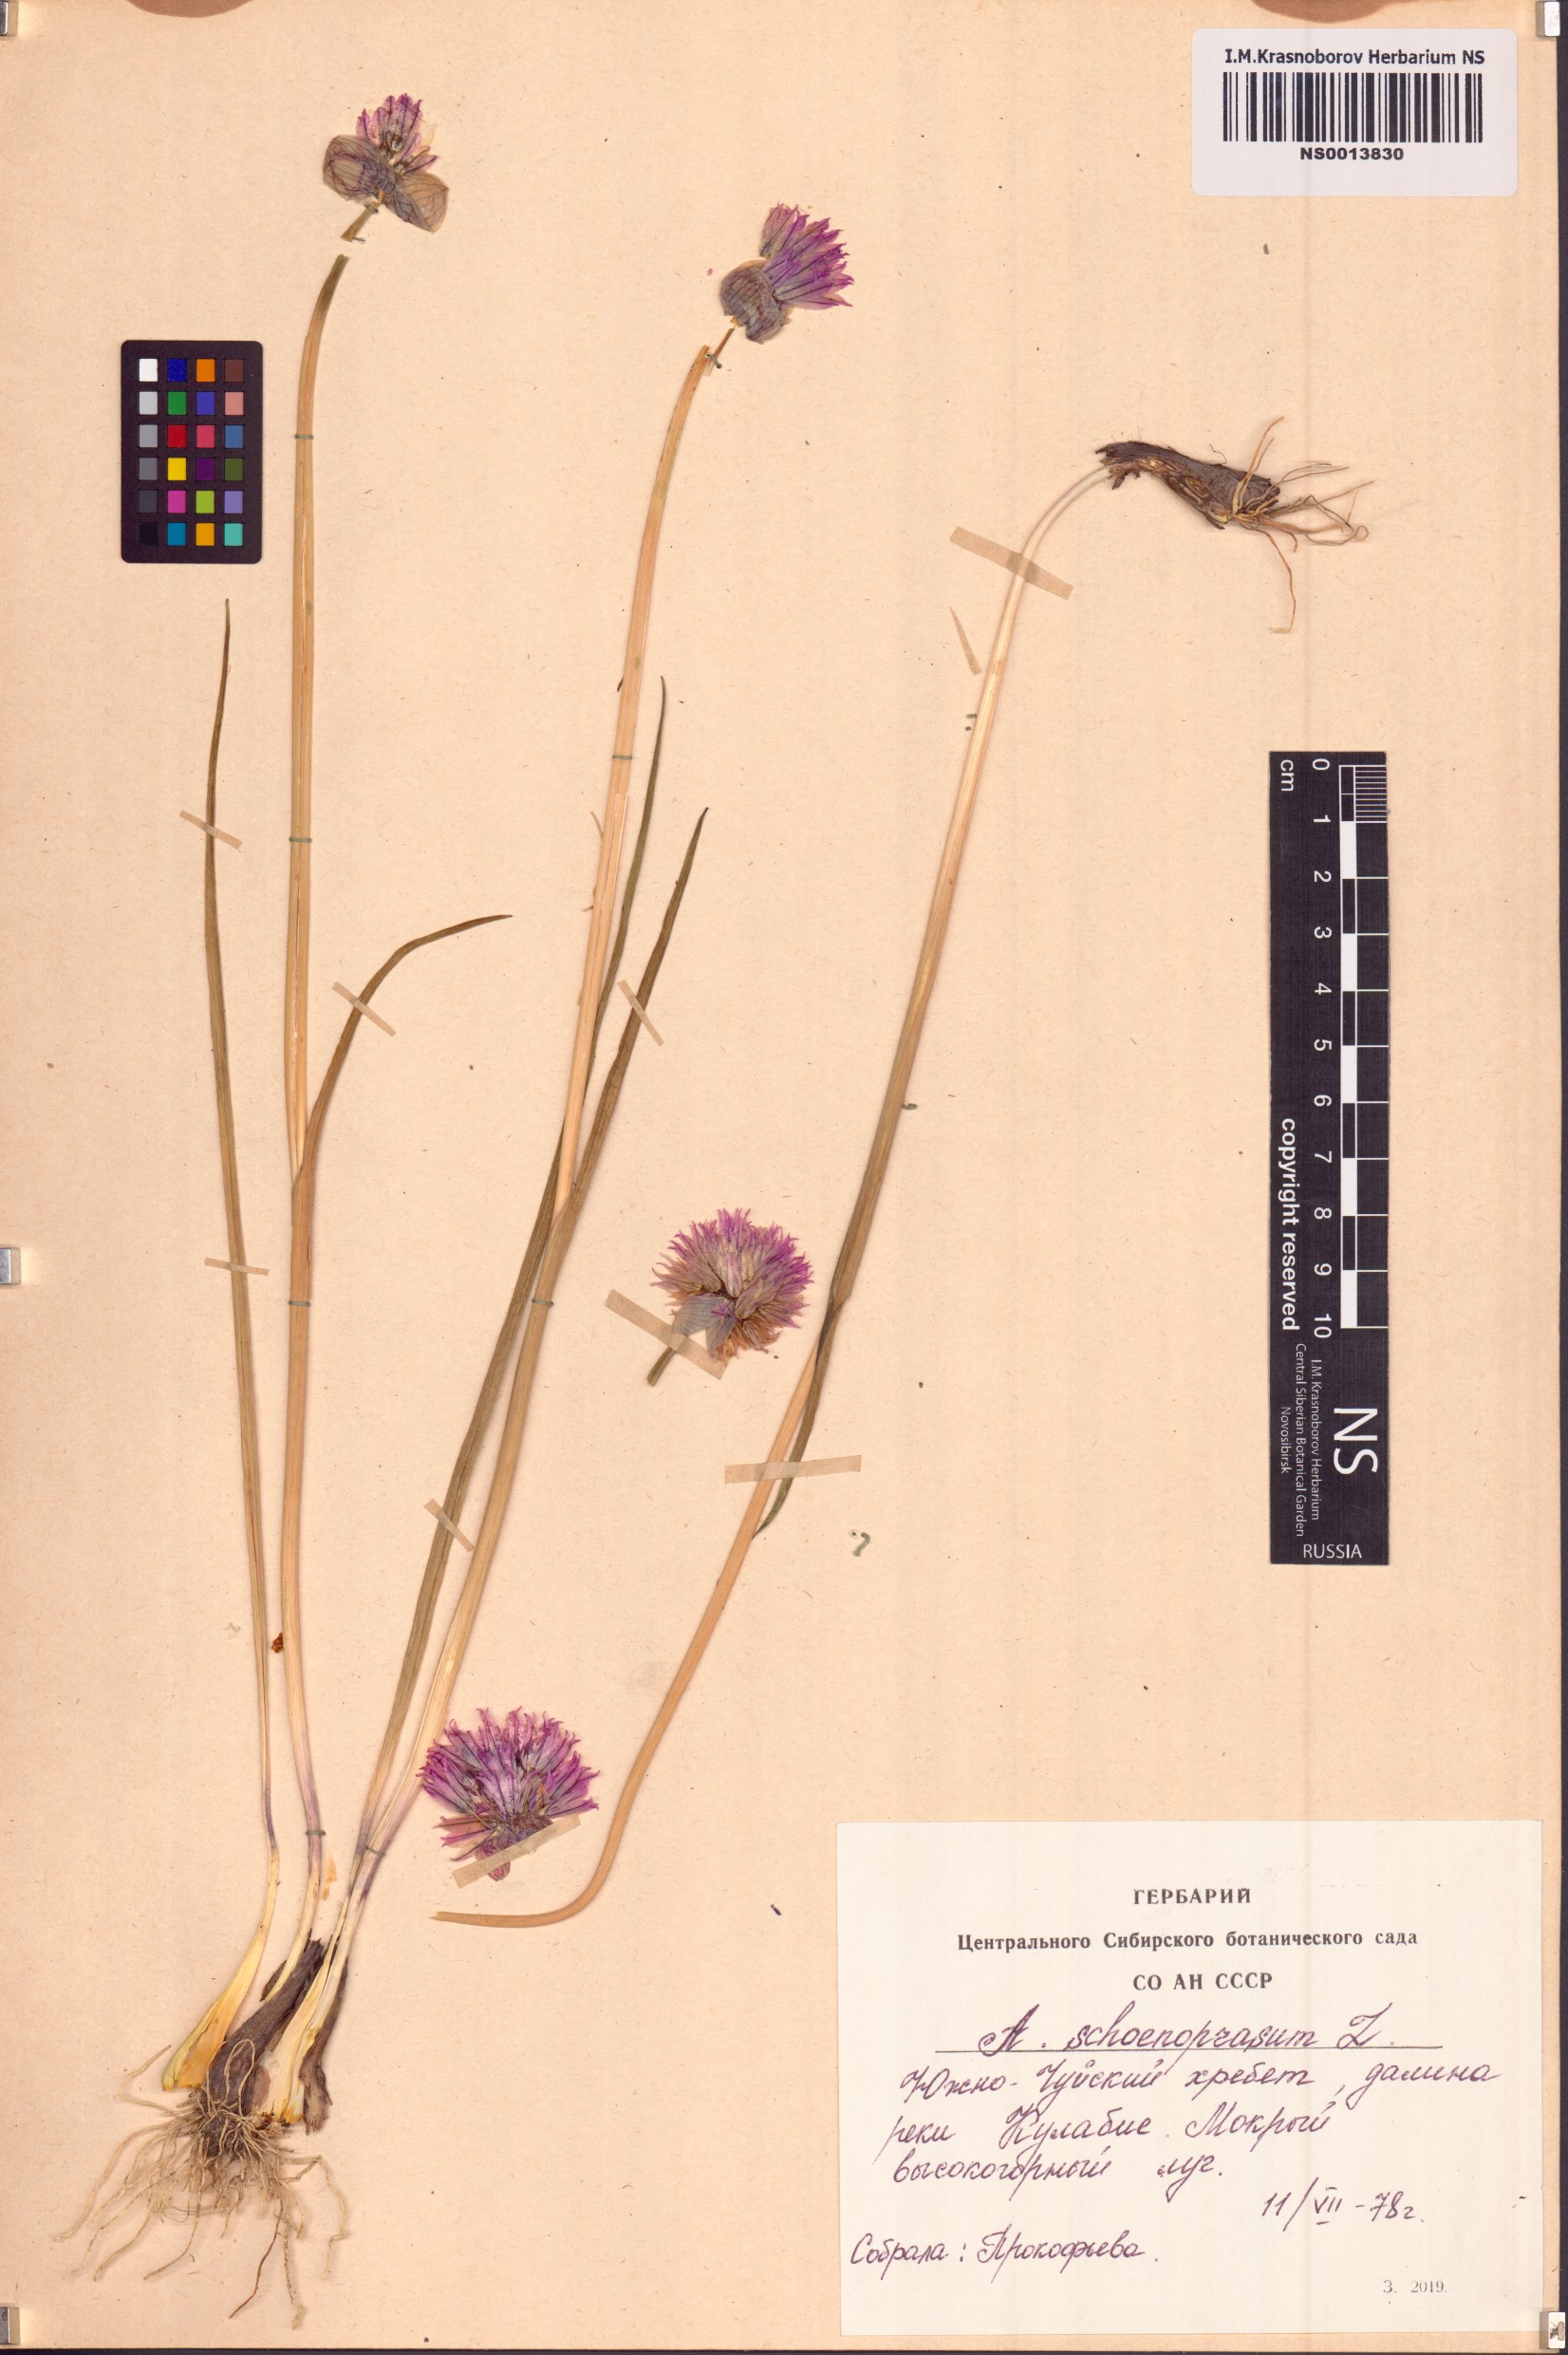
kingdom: Plantae
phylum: Tracheophyta
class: Liliopsida
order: Asparagales
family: Amaryllidaceae
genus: Allium
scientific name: Allium schoenoprasum
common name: Chives
